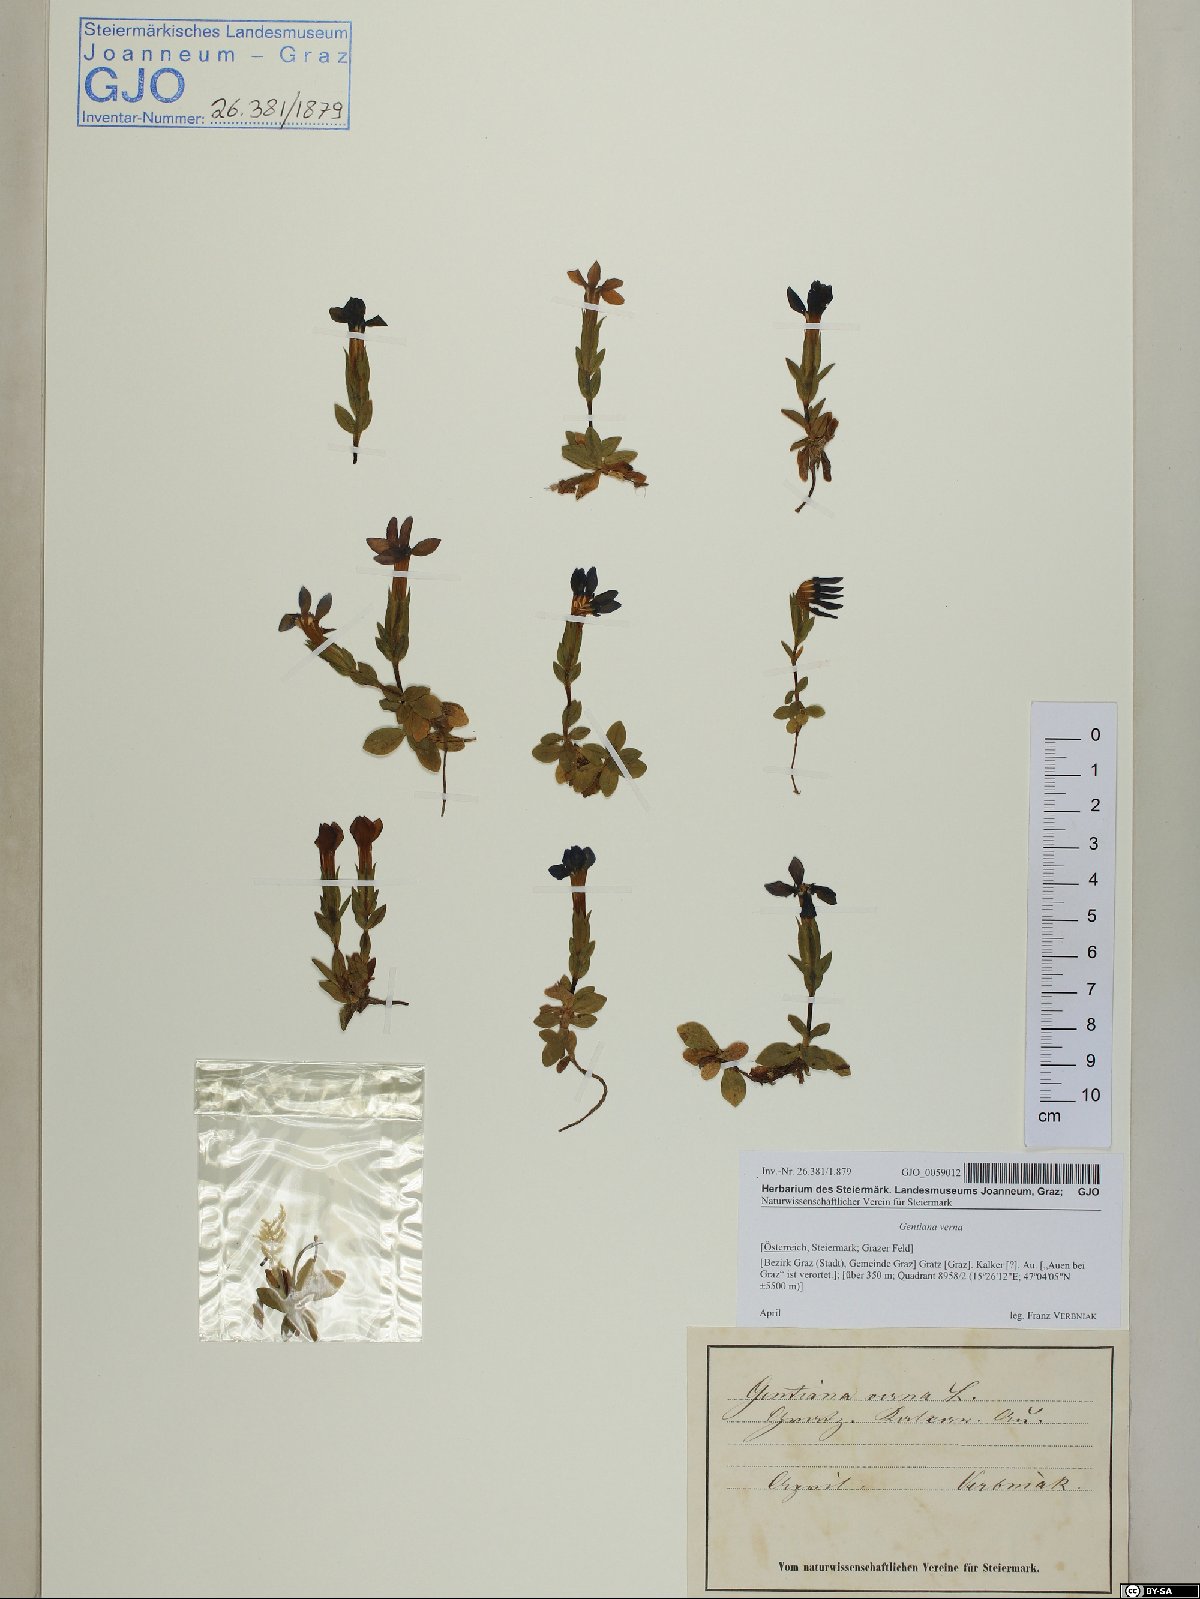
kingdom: Plantae
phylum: Tracheophyta
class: Magnoliopsida
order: Gentianales
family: Gentianaceae
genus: Gentiana
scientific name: Gentiana verna
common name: Spring gentian
